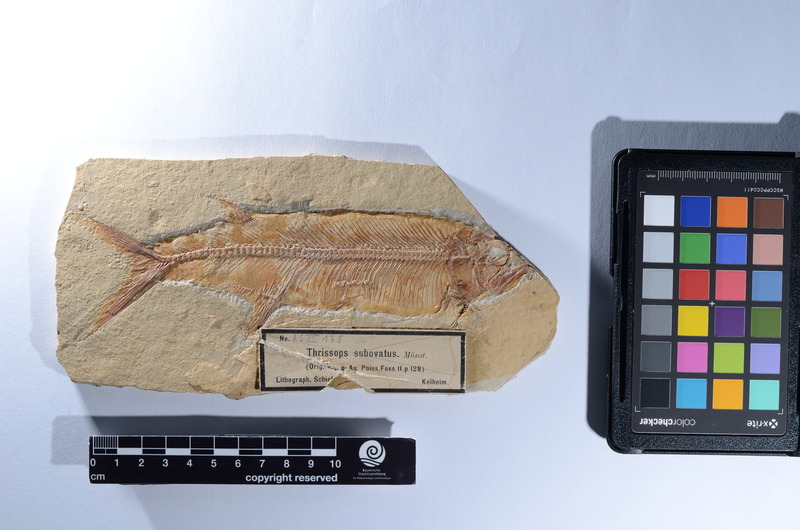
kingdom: Animalia
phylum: Chordata
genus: Thrissops
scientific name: Thrissops formosus
